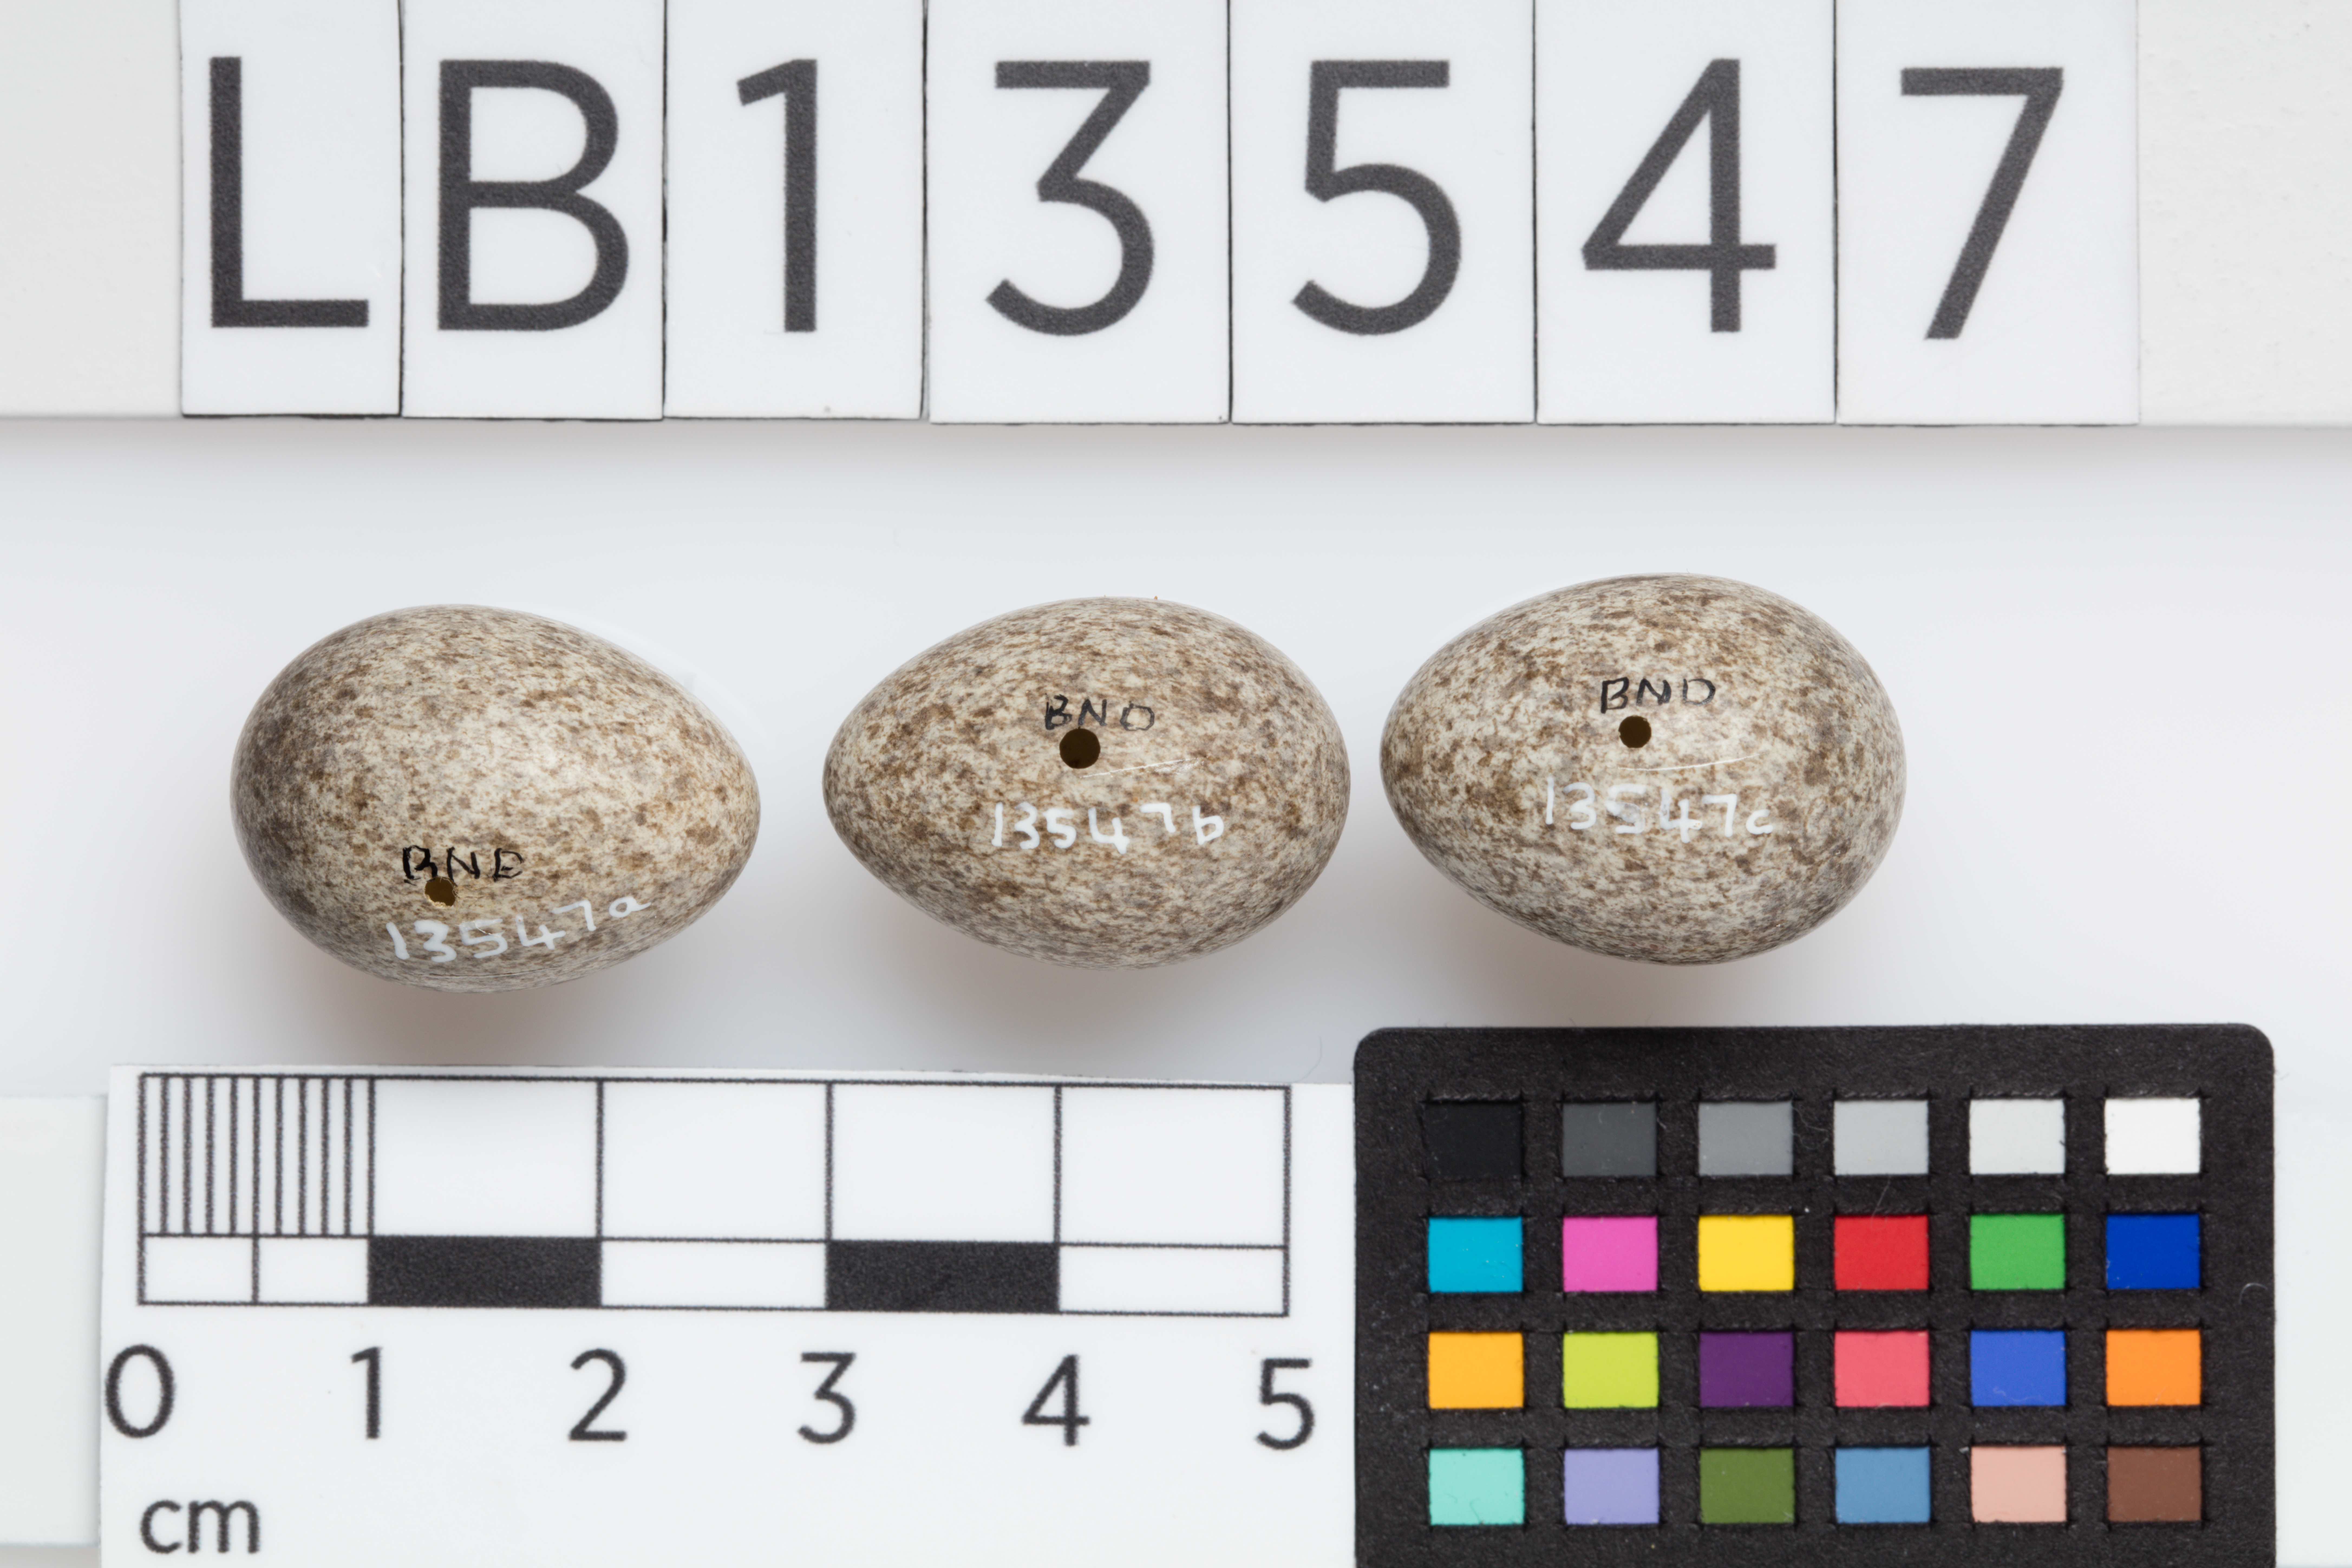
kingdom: Animalia
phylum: Chordata
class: Aves
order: Passeriformes
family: Motacillidae
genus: Anthus
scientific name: Anthus novaeseelandiae
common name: New zealand pipit
